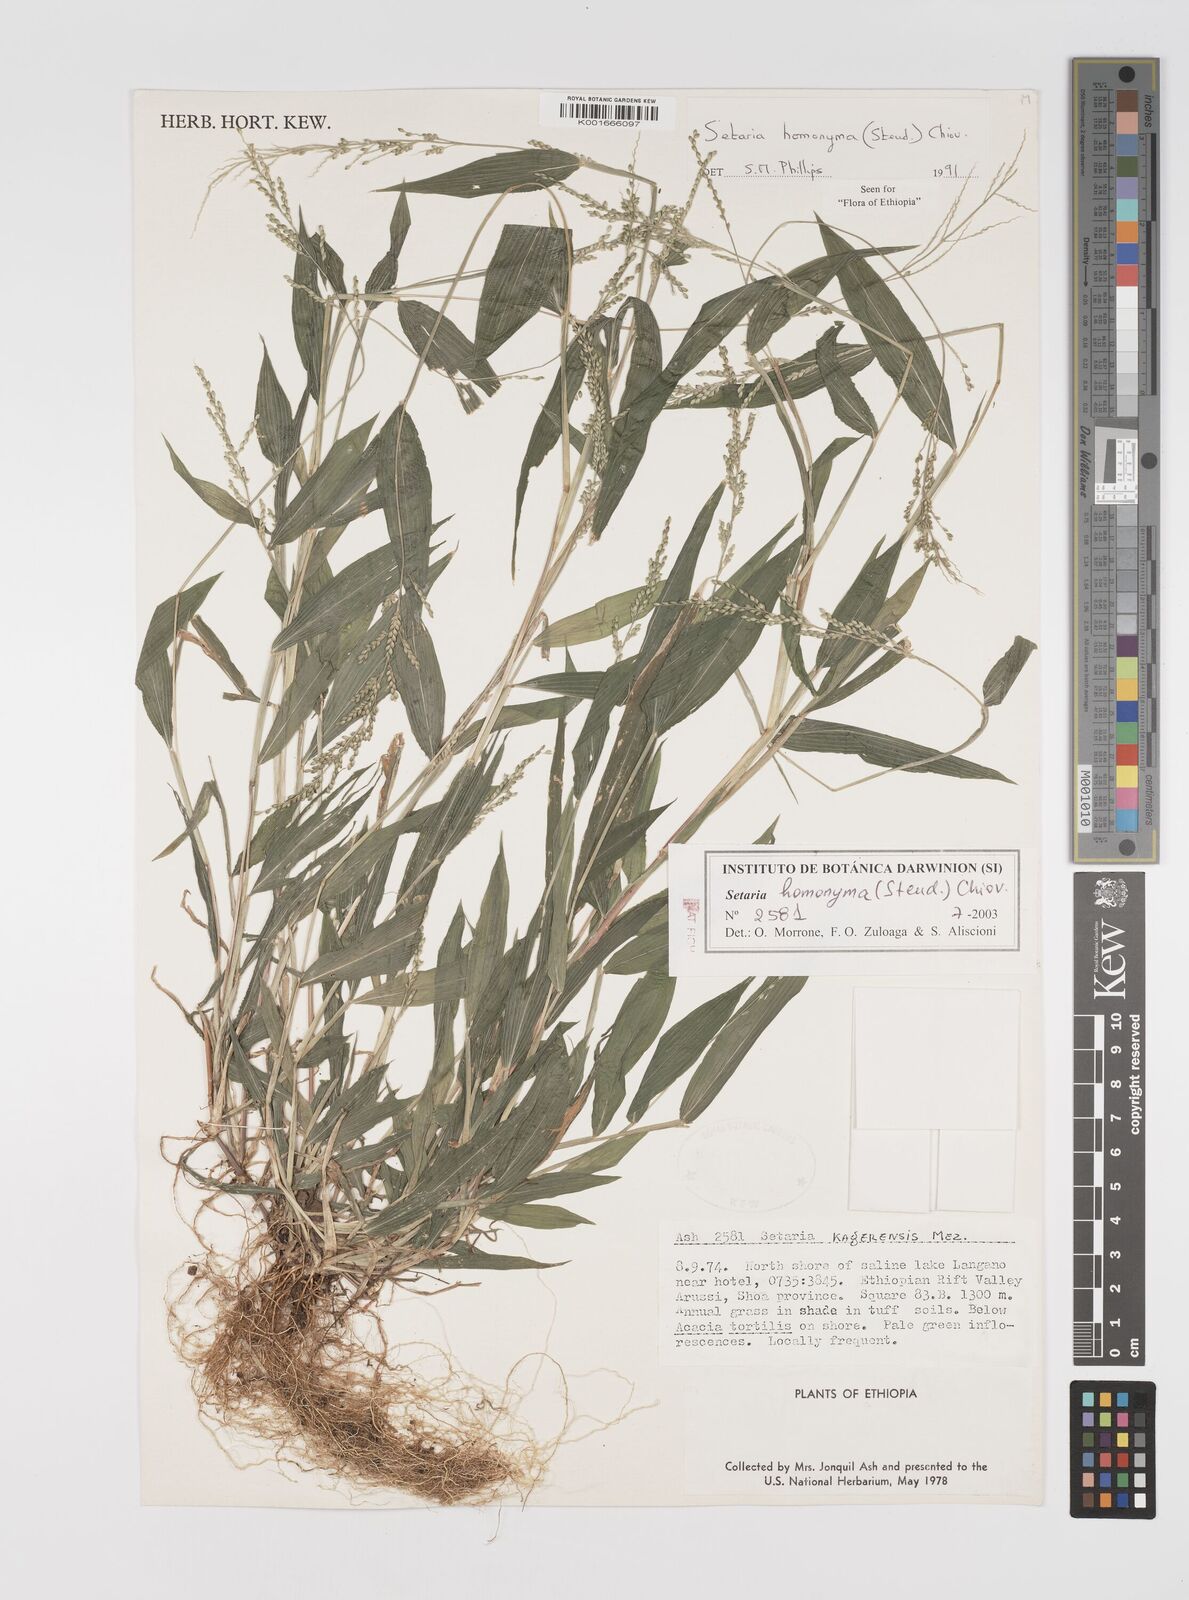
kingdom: Plantae
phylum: Tracheophyta
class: Liliopsida
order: Poales
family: Poaceae
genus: Setaria
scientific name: Setaria homonyma
